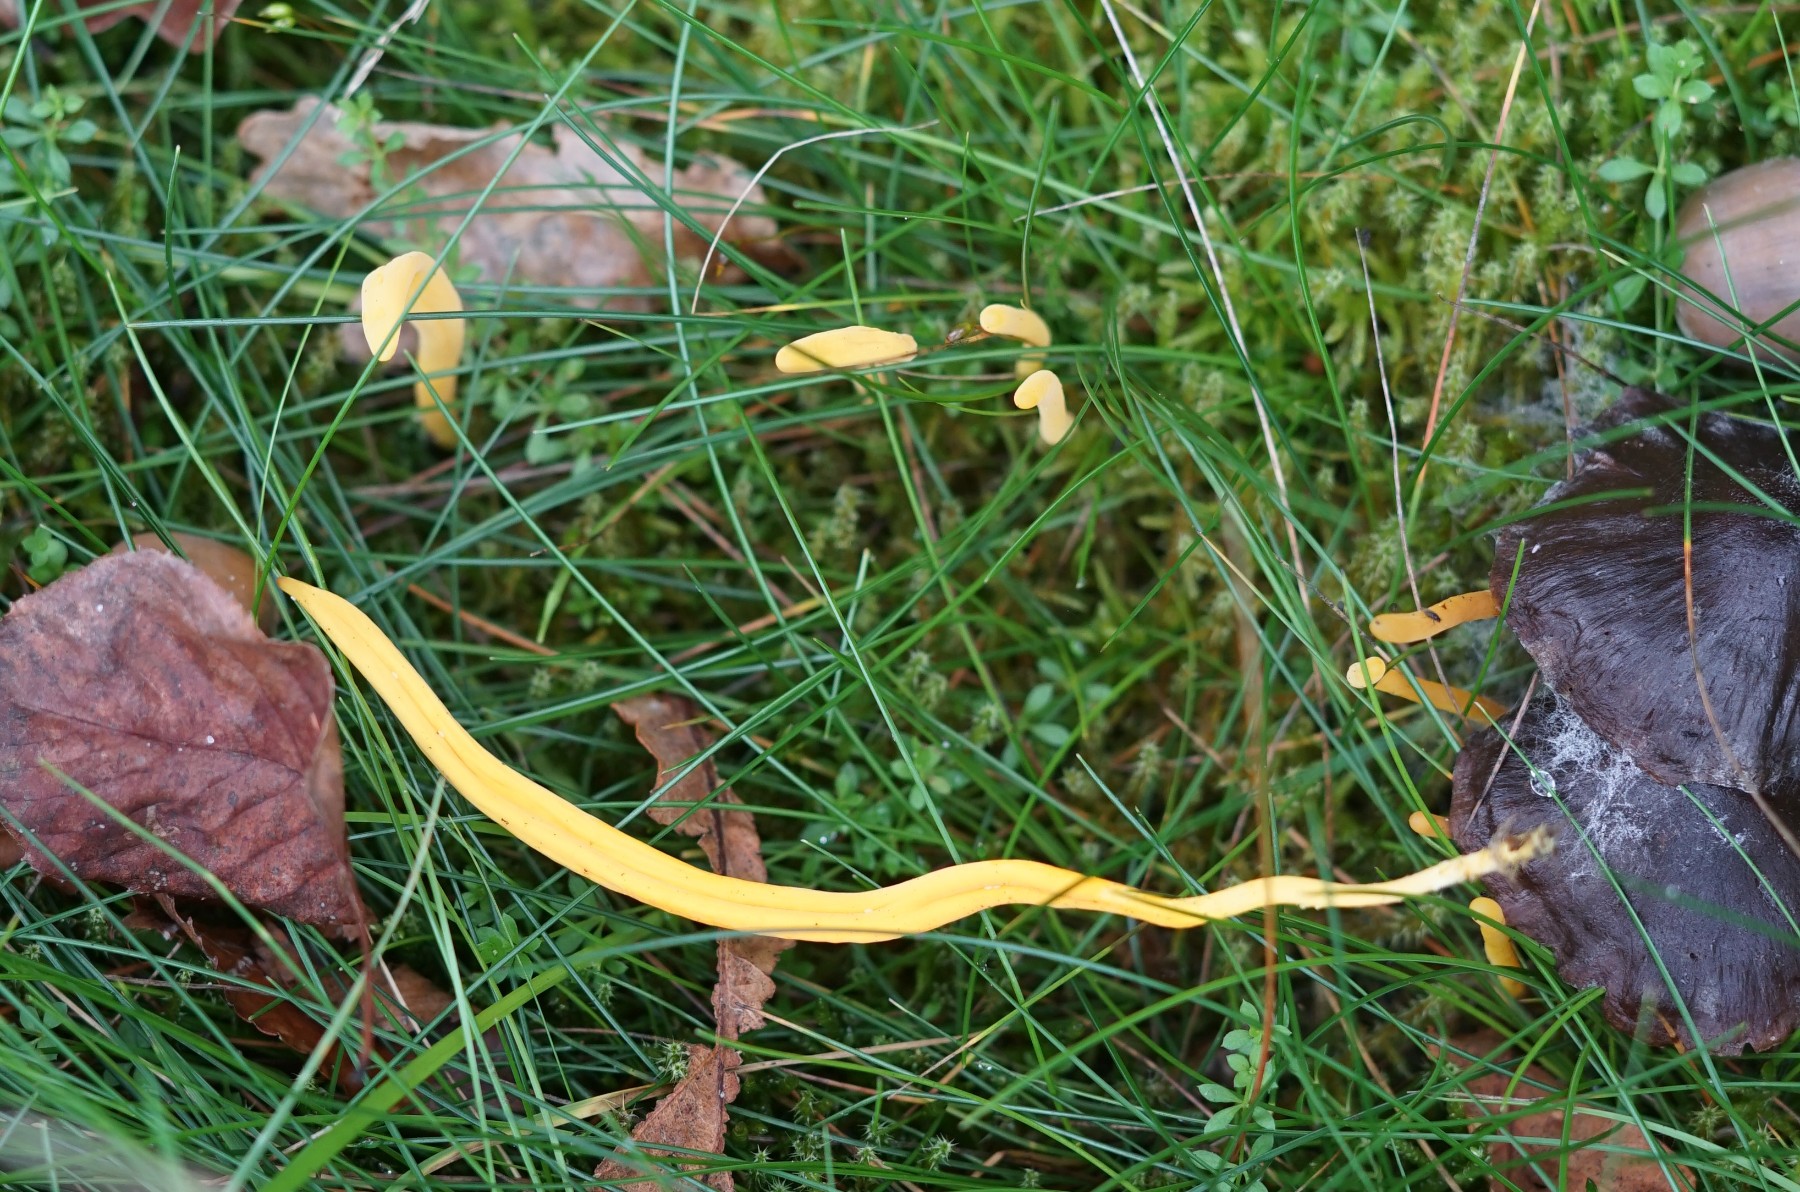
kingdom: Fungi
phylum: Basidiomycota
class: Agaricomycetes
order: Agaricales
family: Clavariaceae
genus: Clavulinopsis
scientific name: Clavulinopsis
